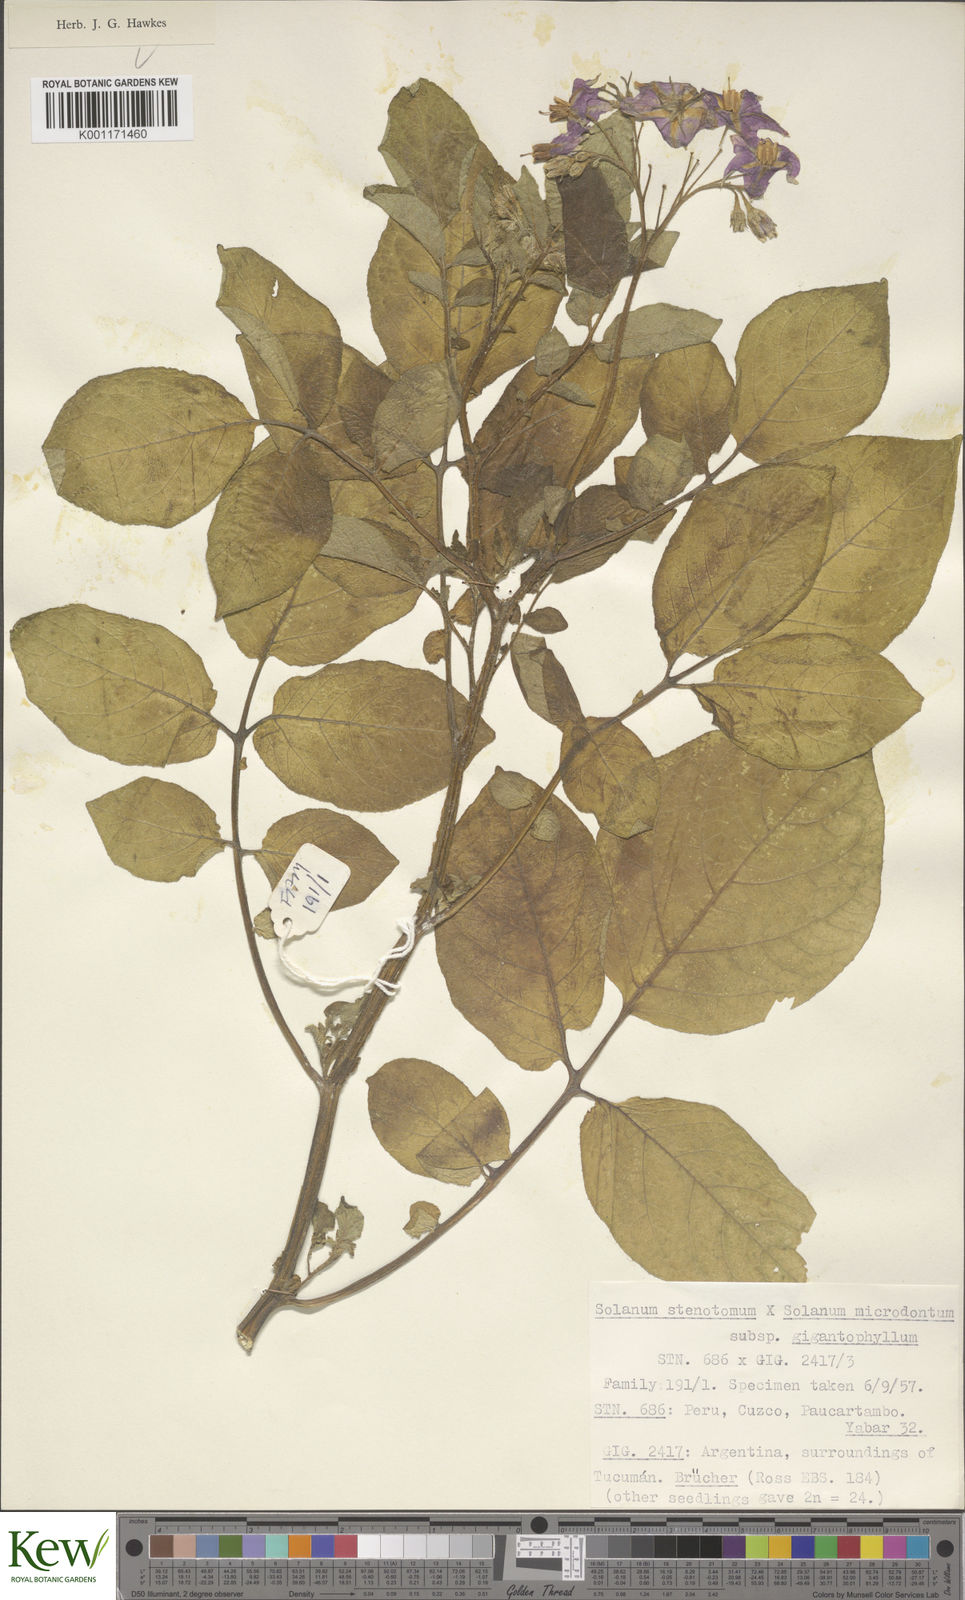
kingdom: Plantae
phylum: Tracheophyta
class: Magnoliopsida
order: Solanales
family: Solanaceae
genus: Solanum
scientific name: Solanum tuberosum
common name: Potato
